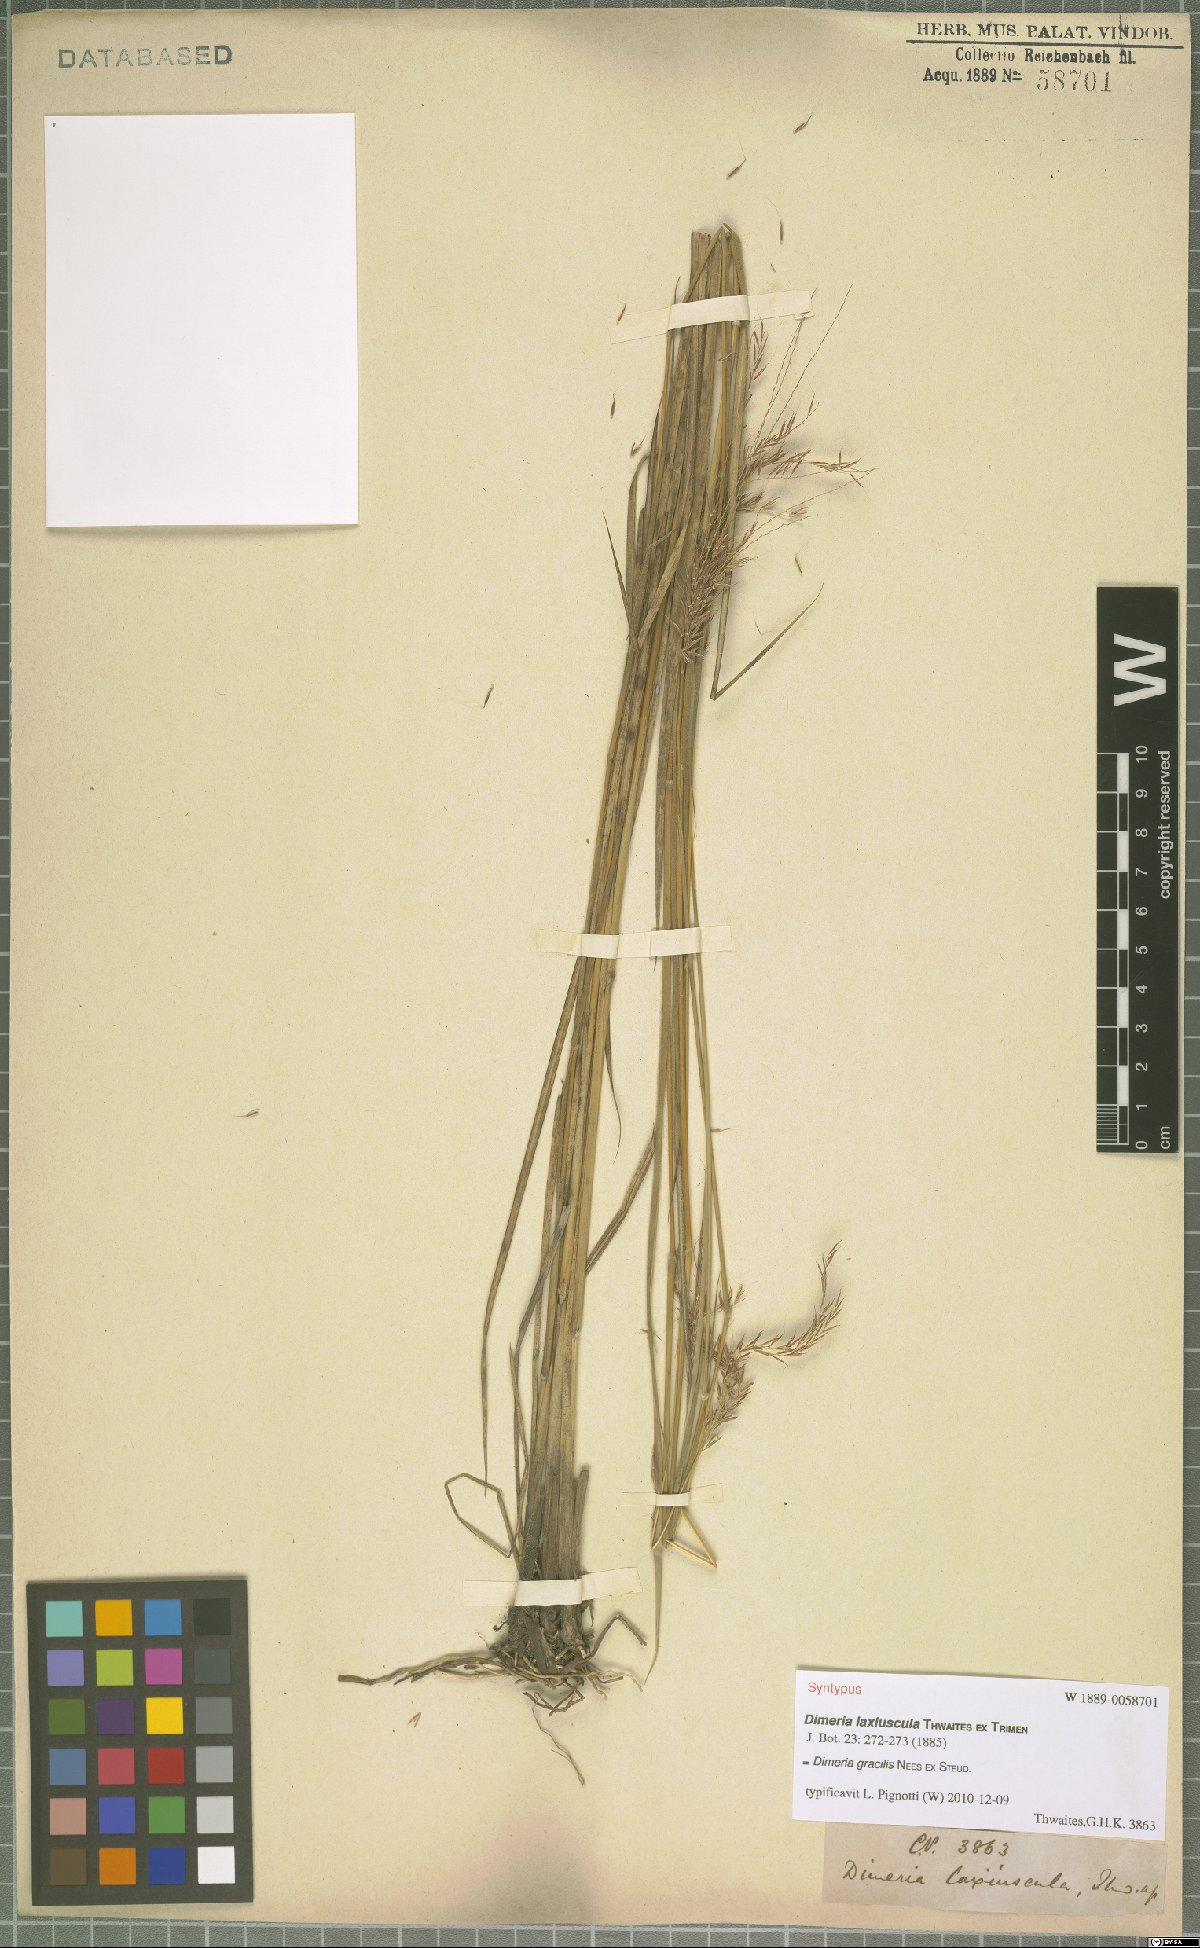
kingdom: Plantae
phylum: Tracheophyta
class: Liliopsida
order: Poales
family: Poaceae
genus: Dimeria
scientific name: Dimeria gracilis
